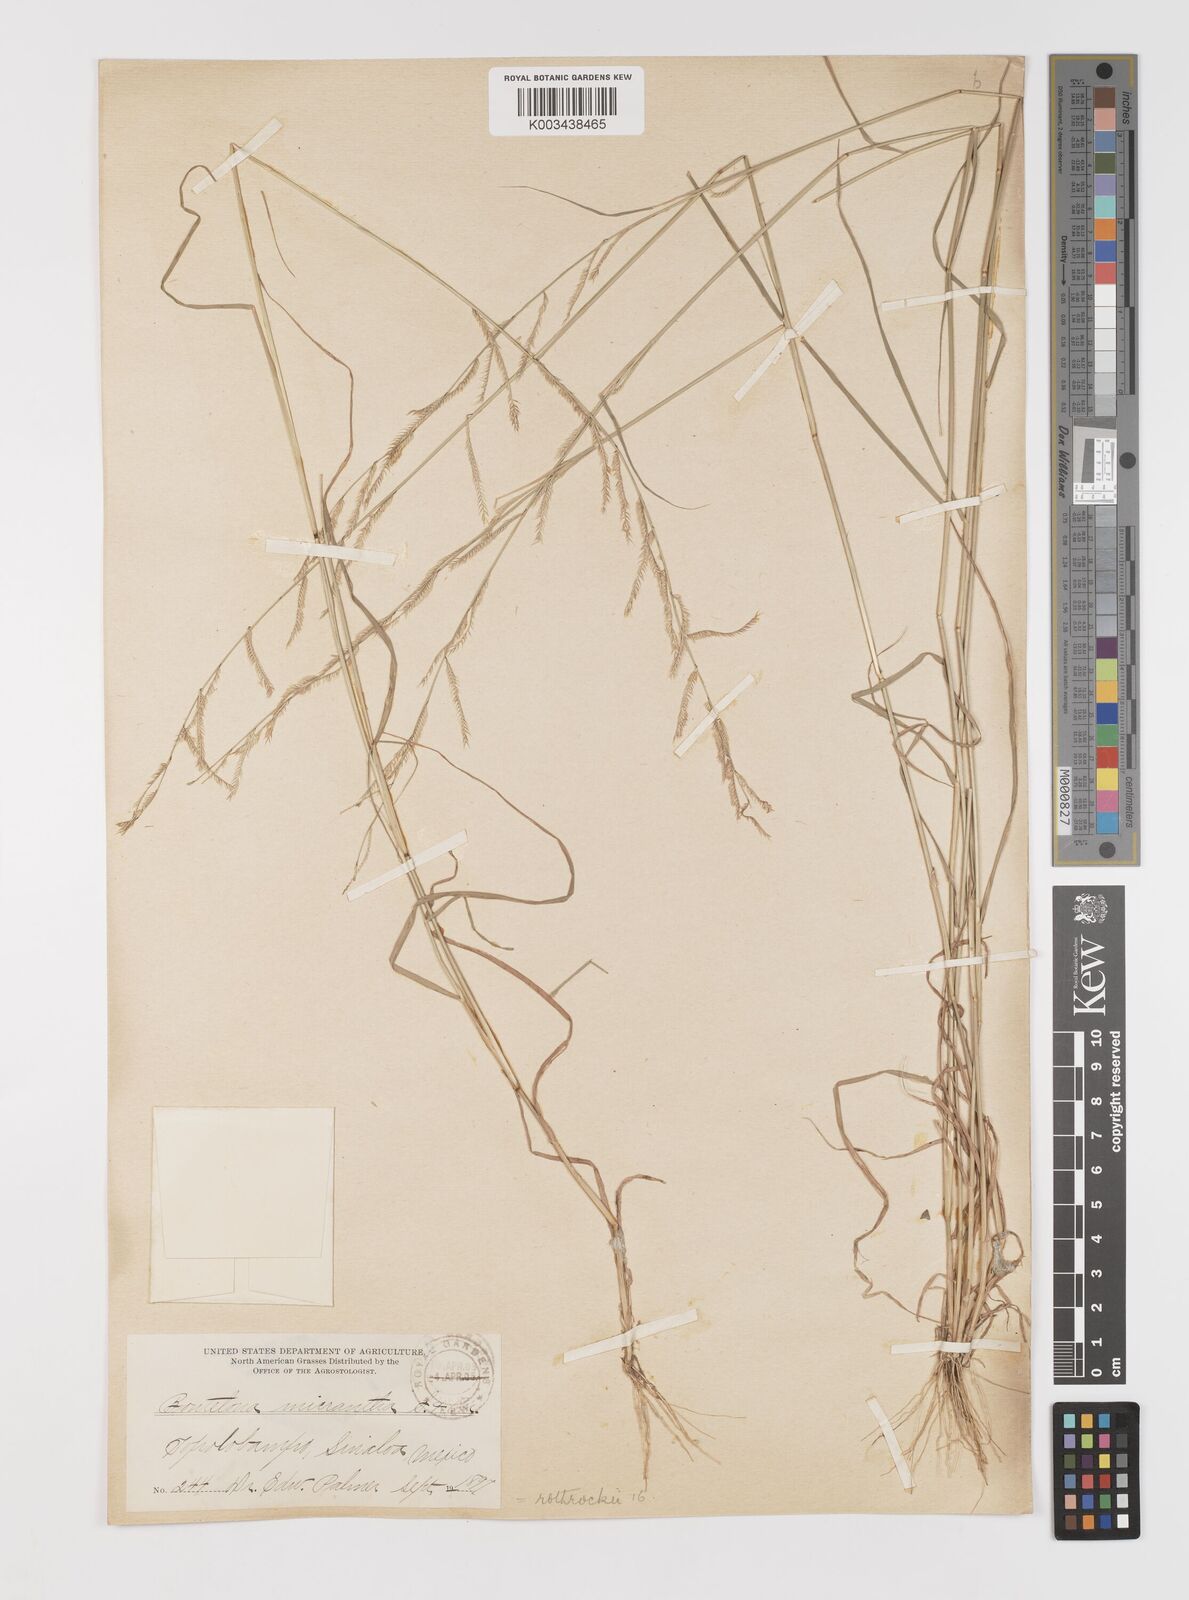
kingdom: Plantae
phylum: Tracheophyta
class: Liliopsida
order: Poales
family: Poaceae
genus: Bouteloua
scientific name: Bouteloua
